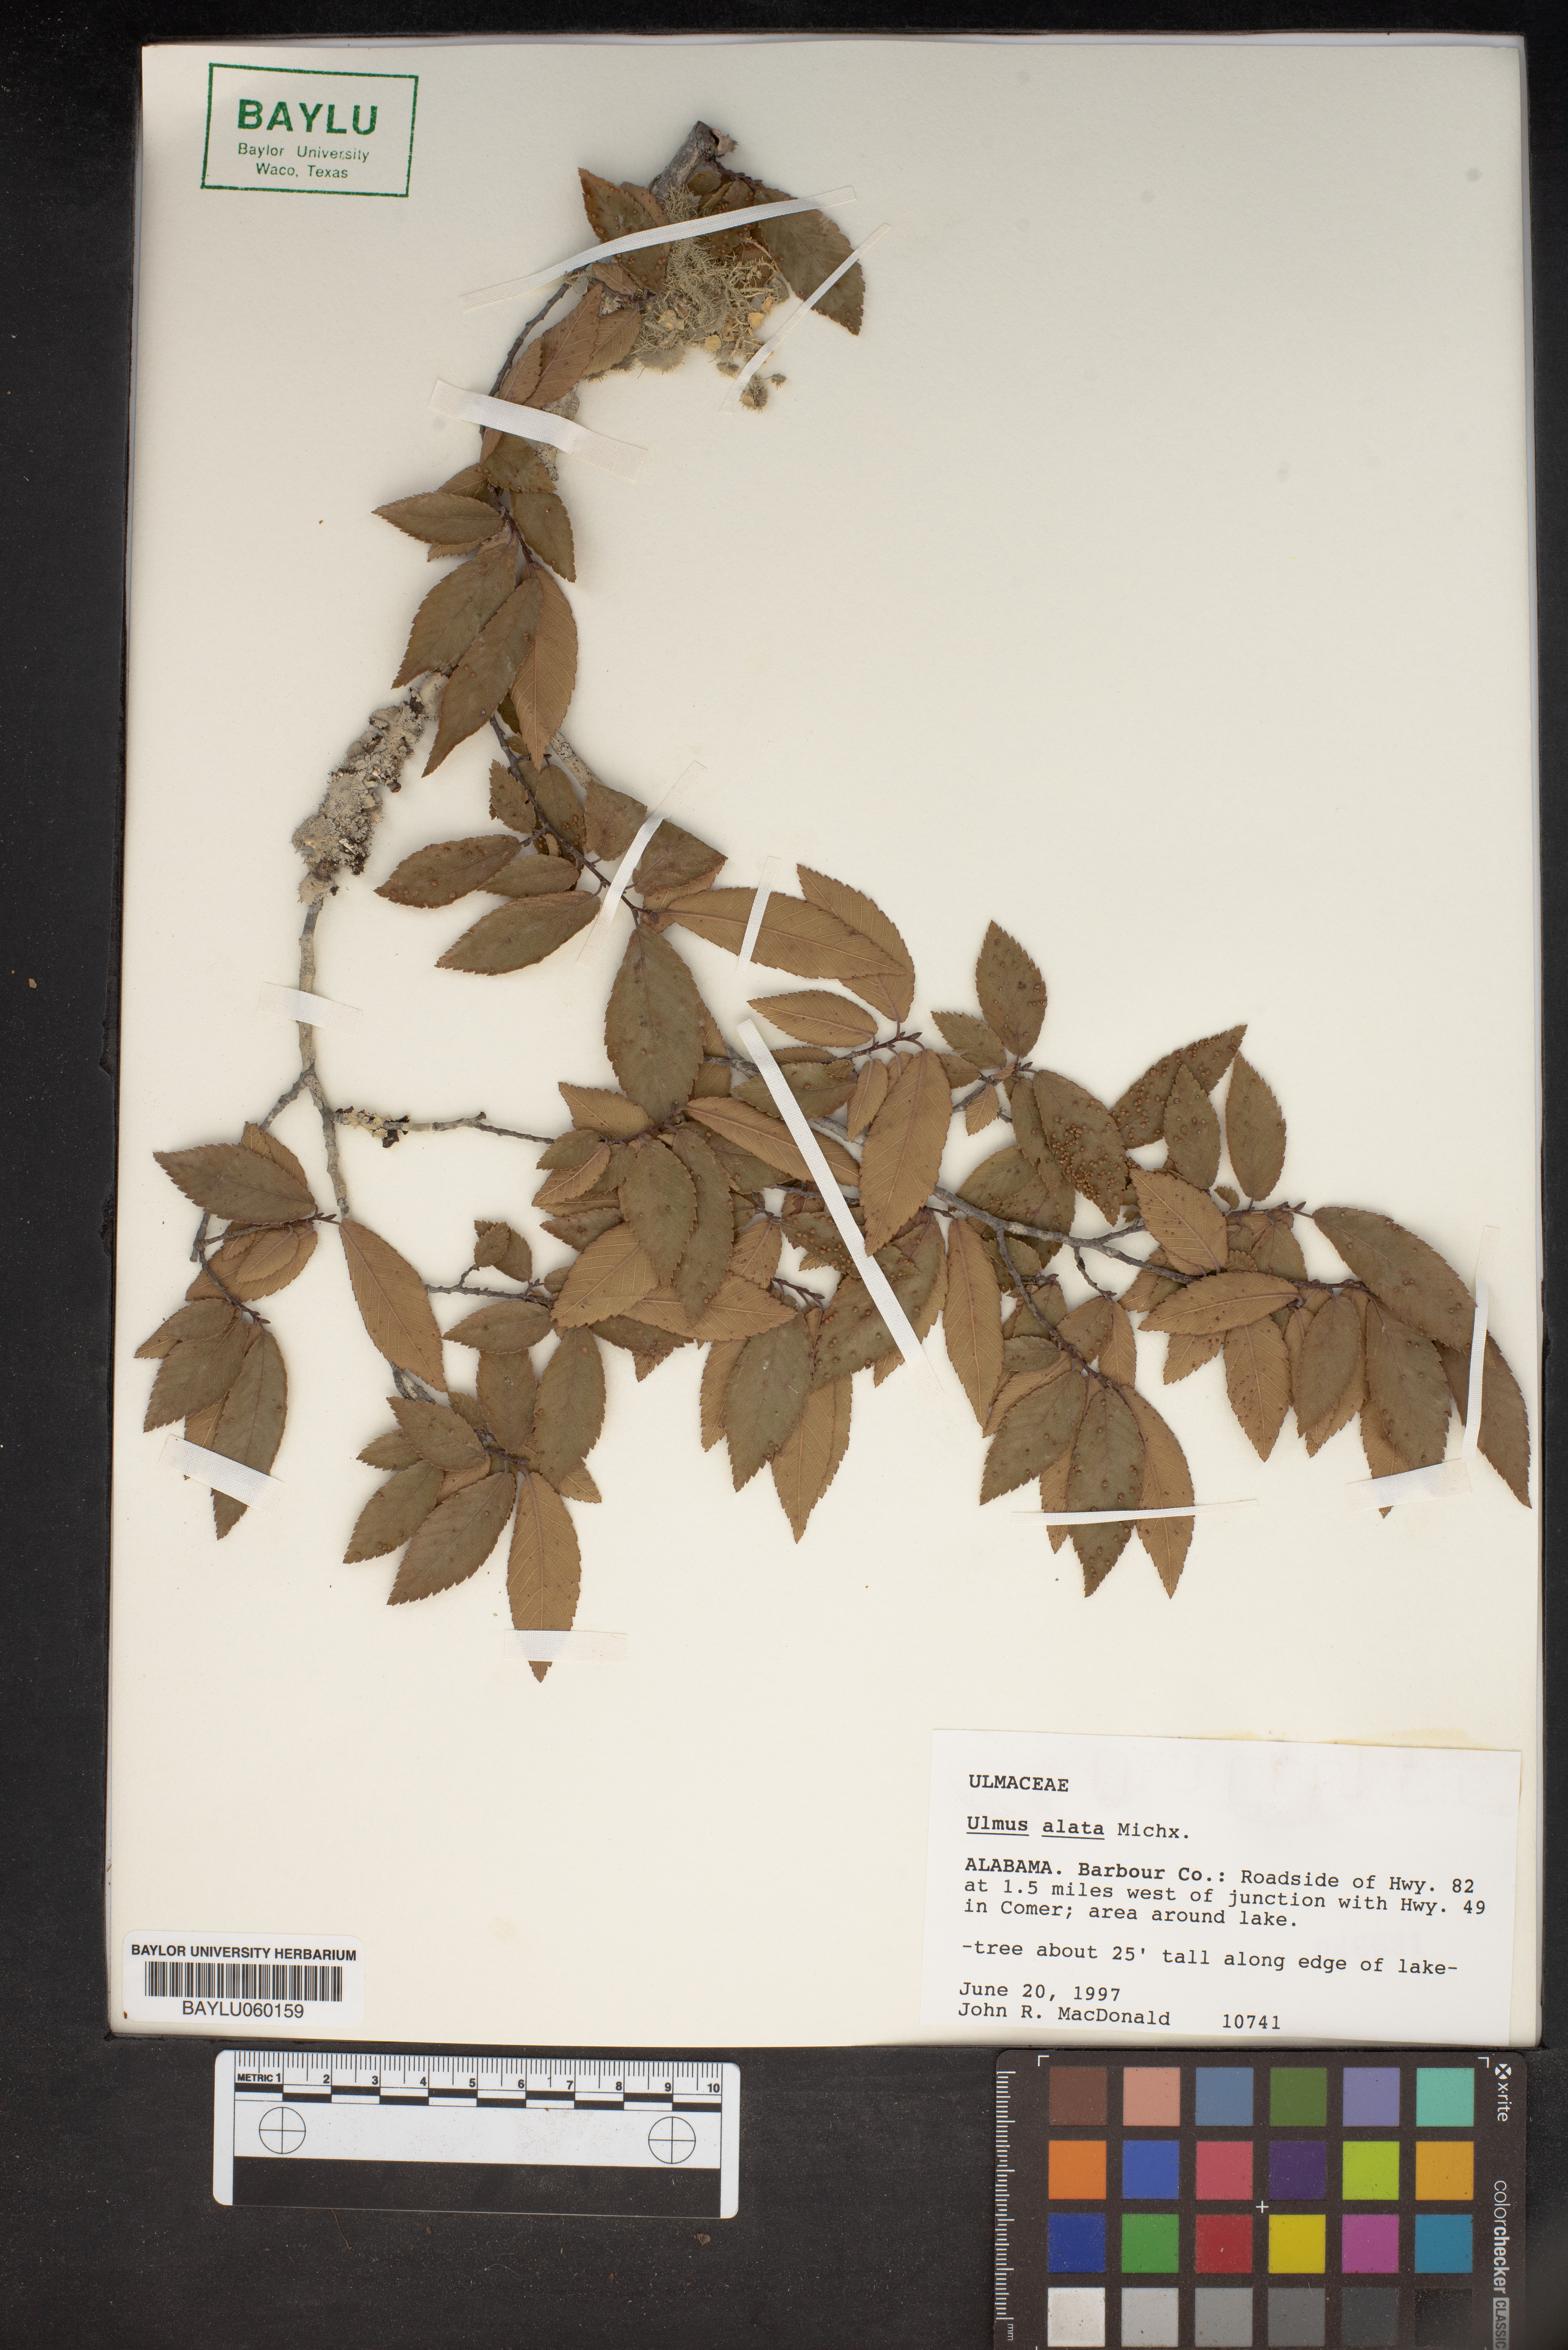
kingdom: Plantae
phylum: Tracheophyta
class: Magnoliopsida
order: Rosales
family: Ulmaceae
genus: Ulmus
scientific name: Ulmus alata
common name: Winged elm
